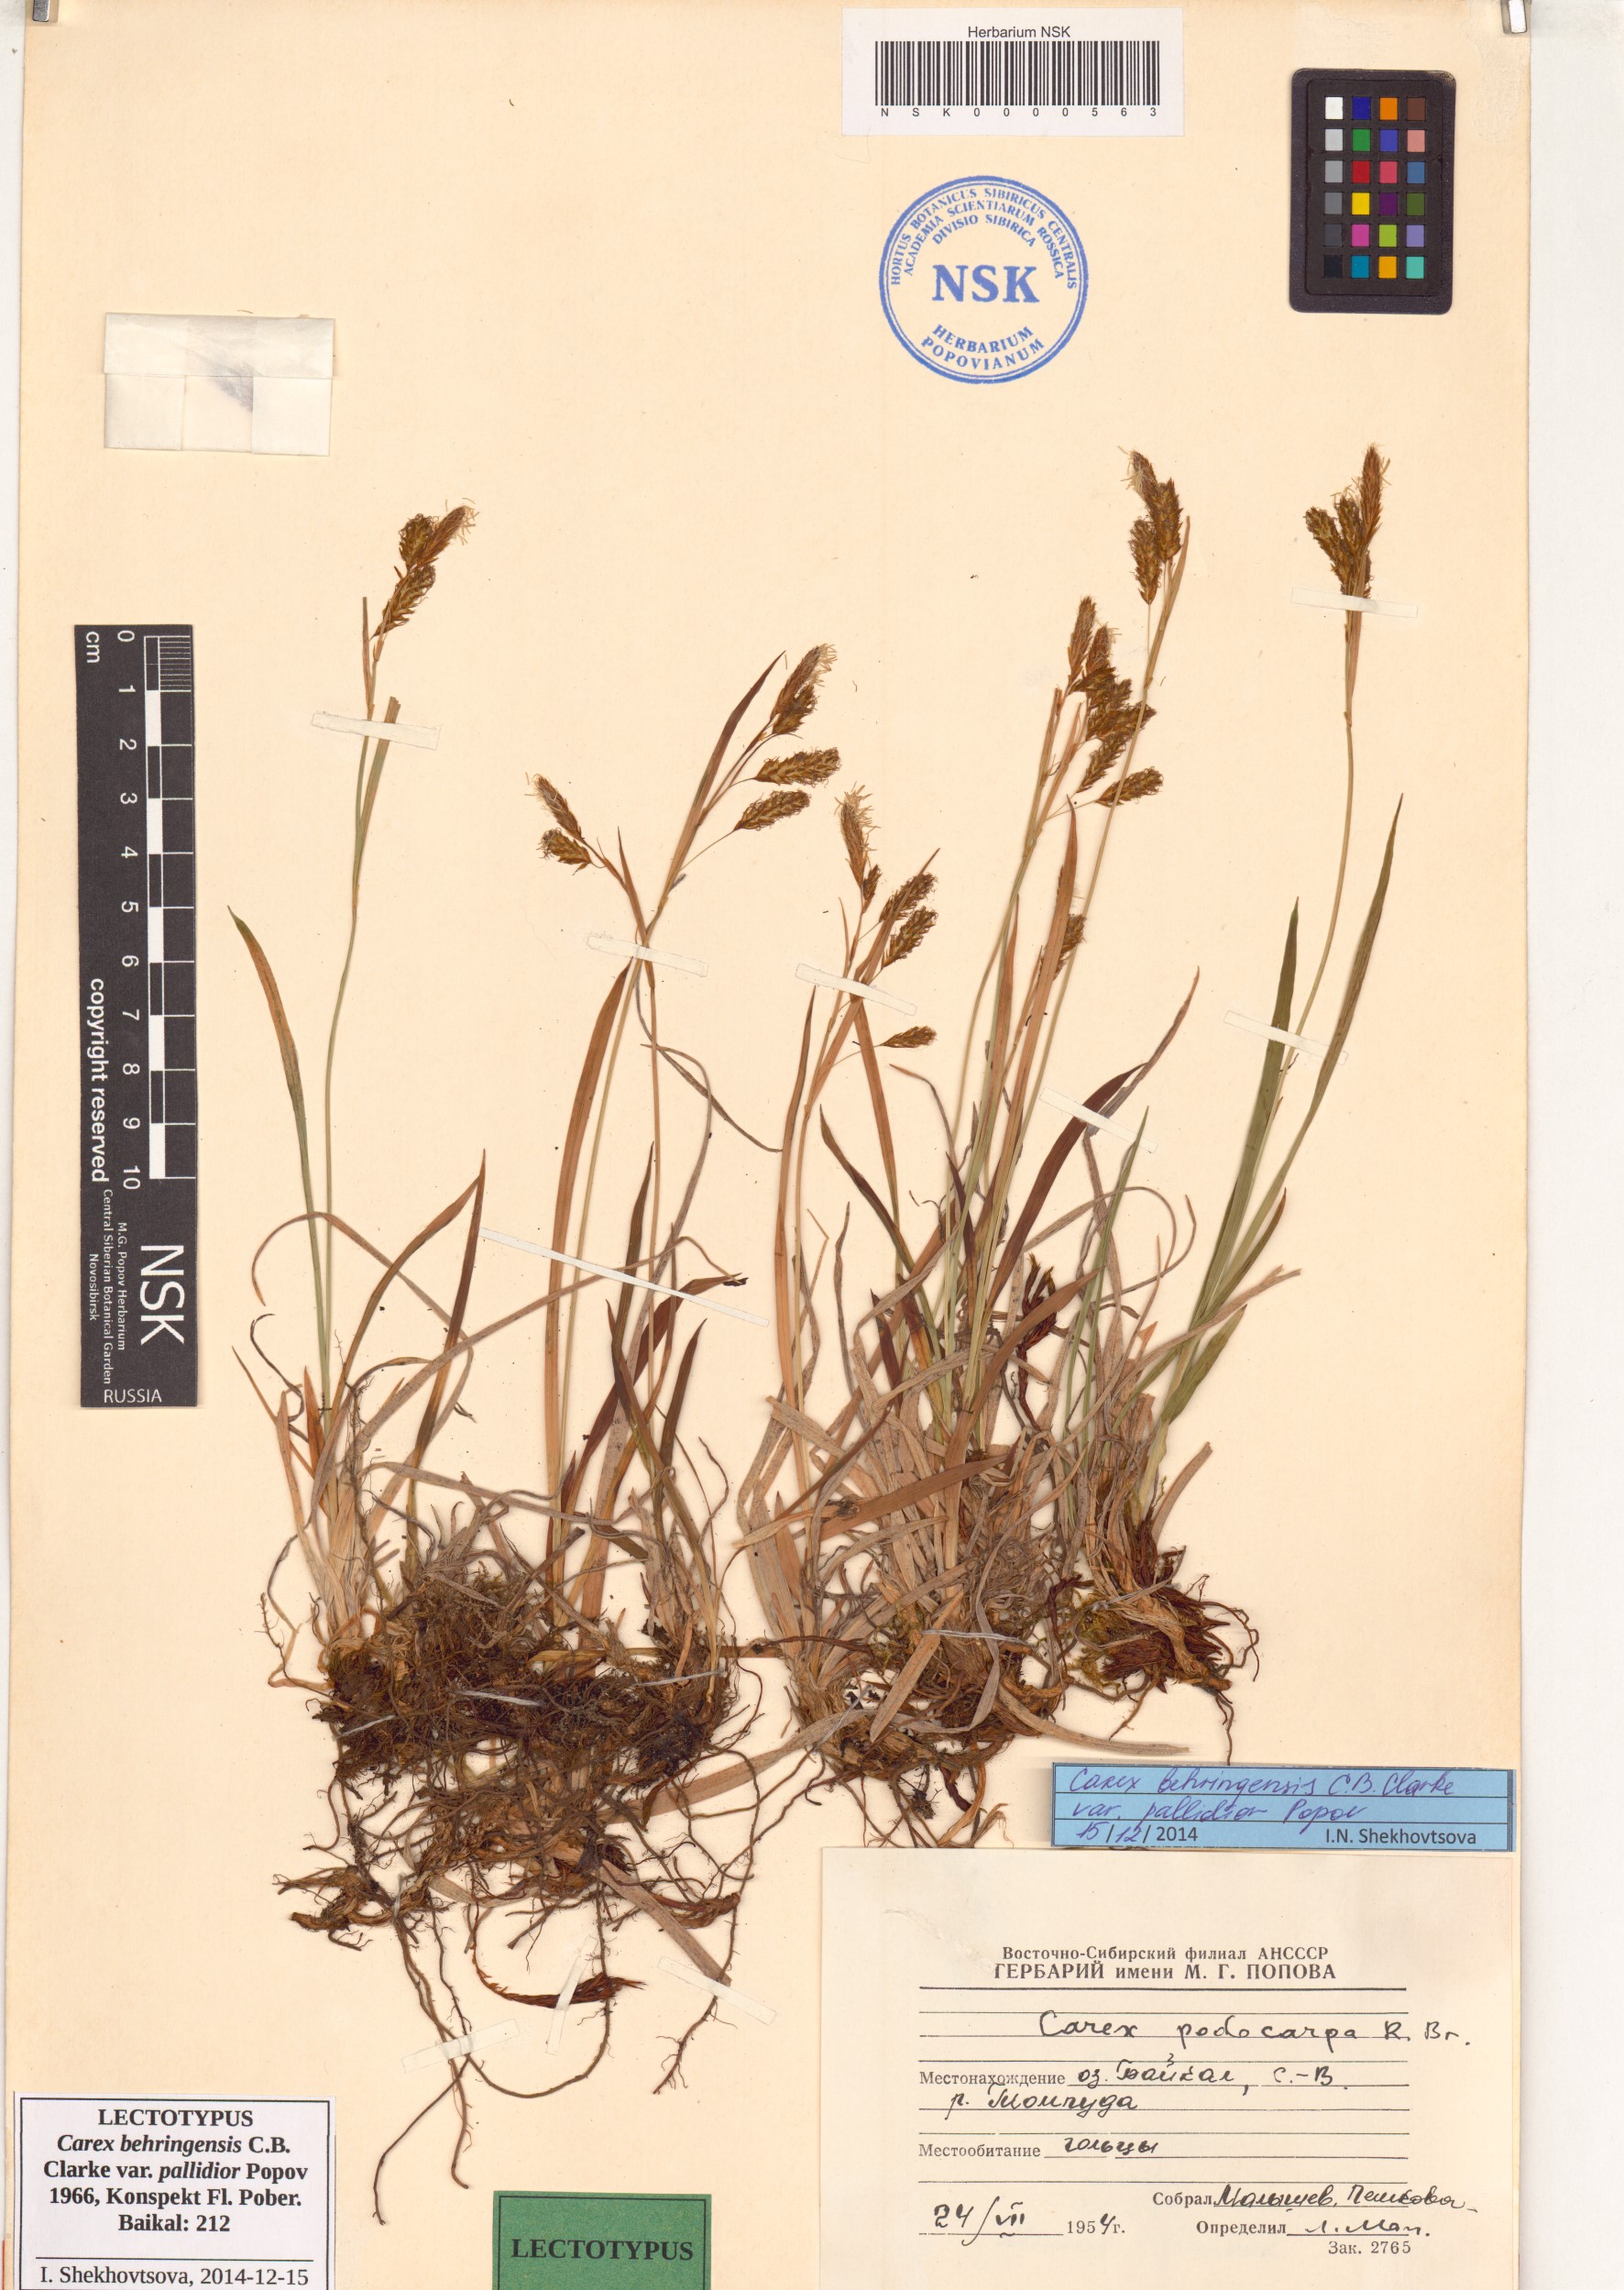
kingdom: Plantae
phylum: Tracheophyta
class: Liliopsida
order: Poales
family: Cyperaceae
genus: Carex
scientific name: Carex podocarpa
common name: Alpine sedge
